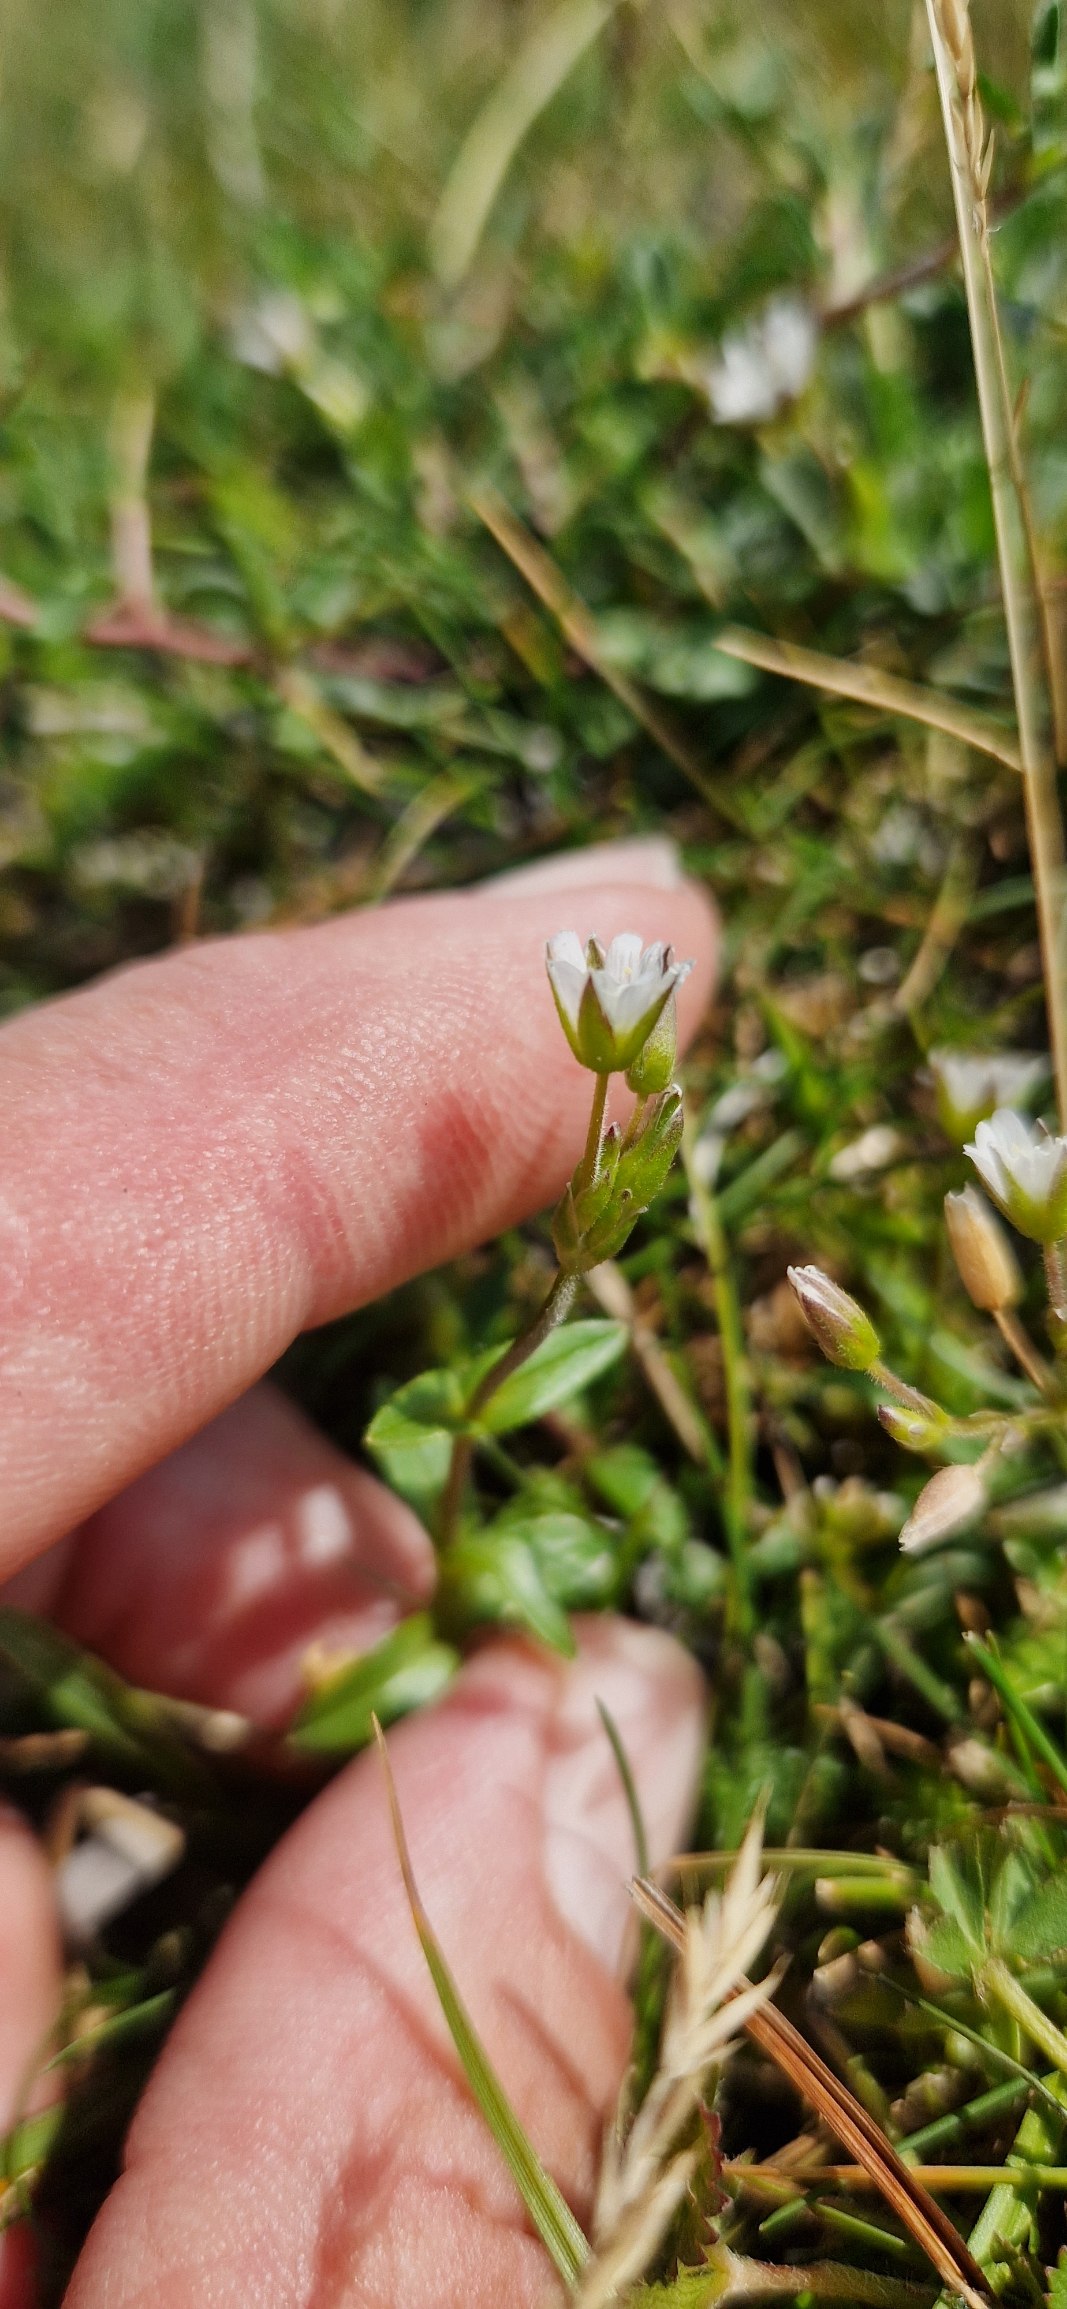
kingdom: Plantae
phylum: Tracheophyta
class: Magnoliopsida
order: Caryophyllales
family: Caryophyllaceae
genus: Cerastium
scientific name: Cerastium holosteoides
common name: Ensidig hønsetarm
